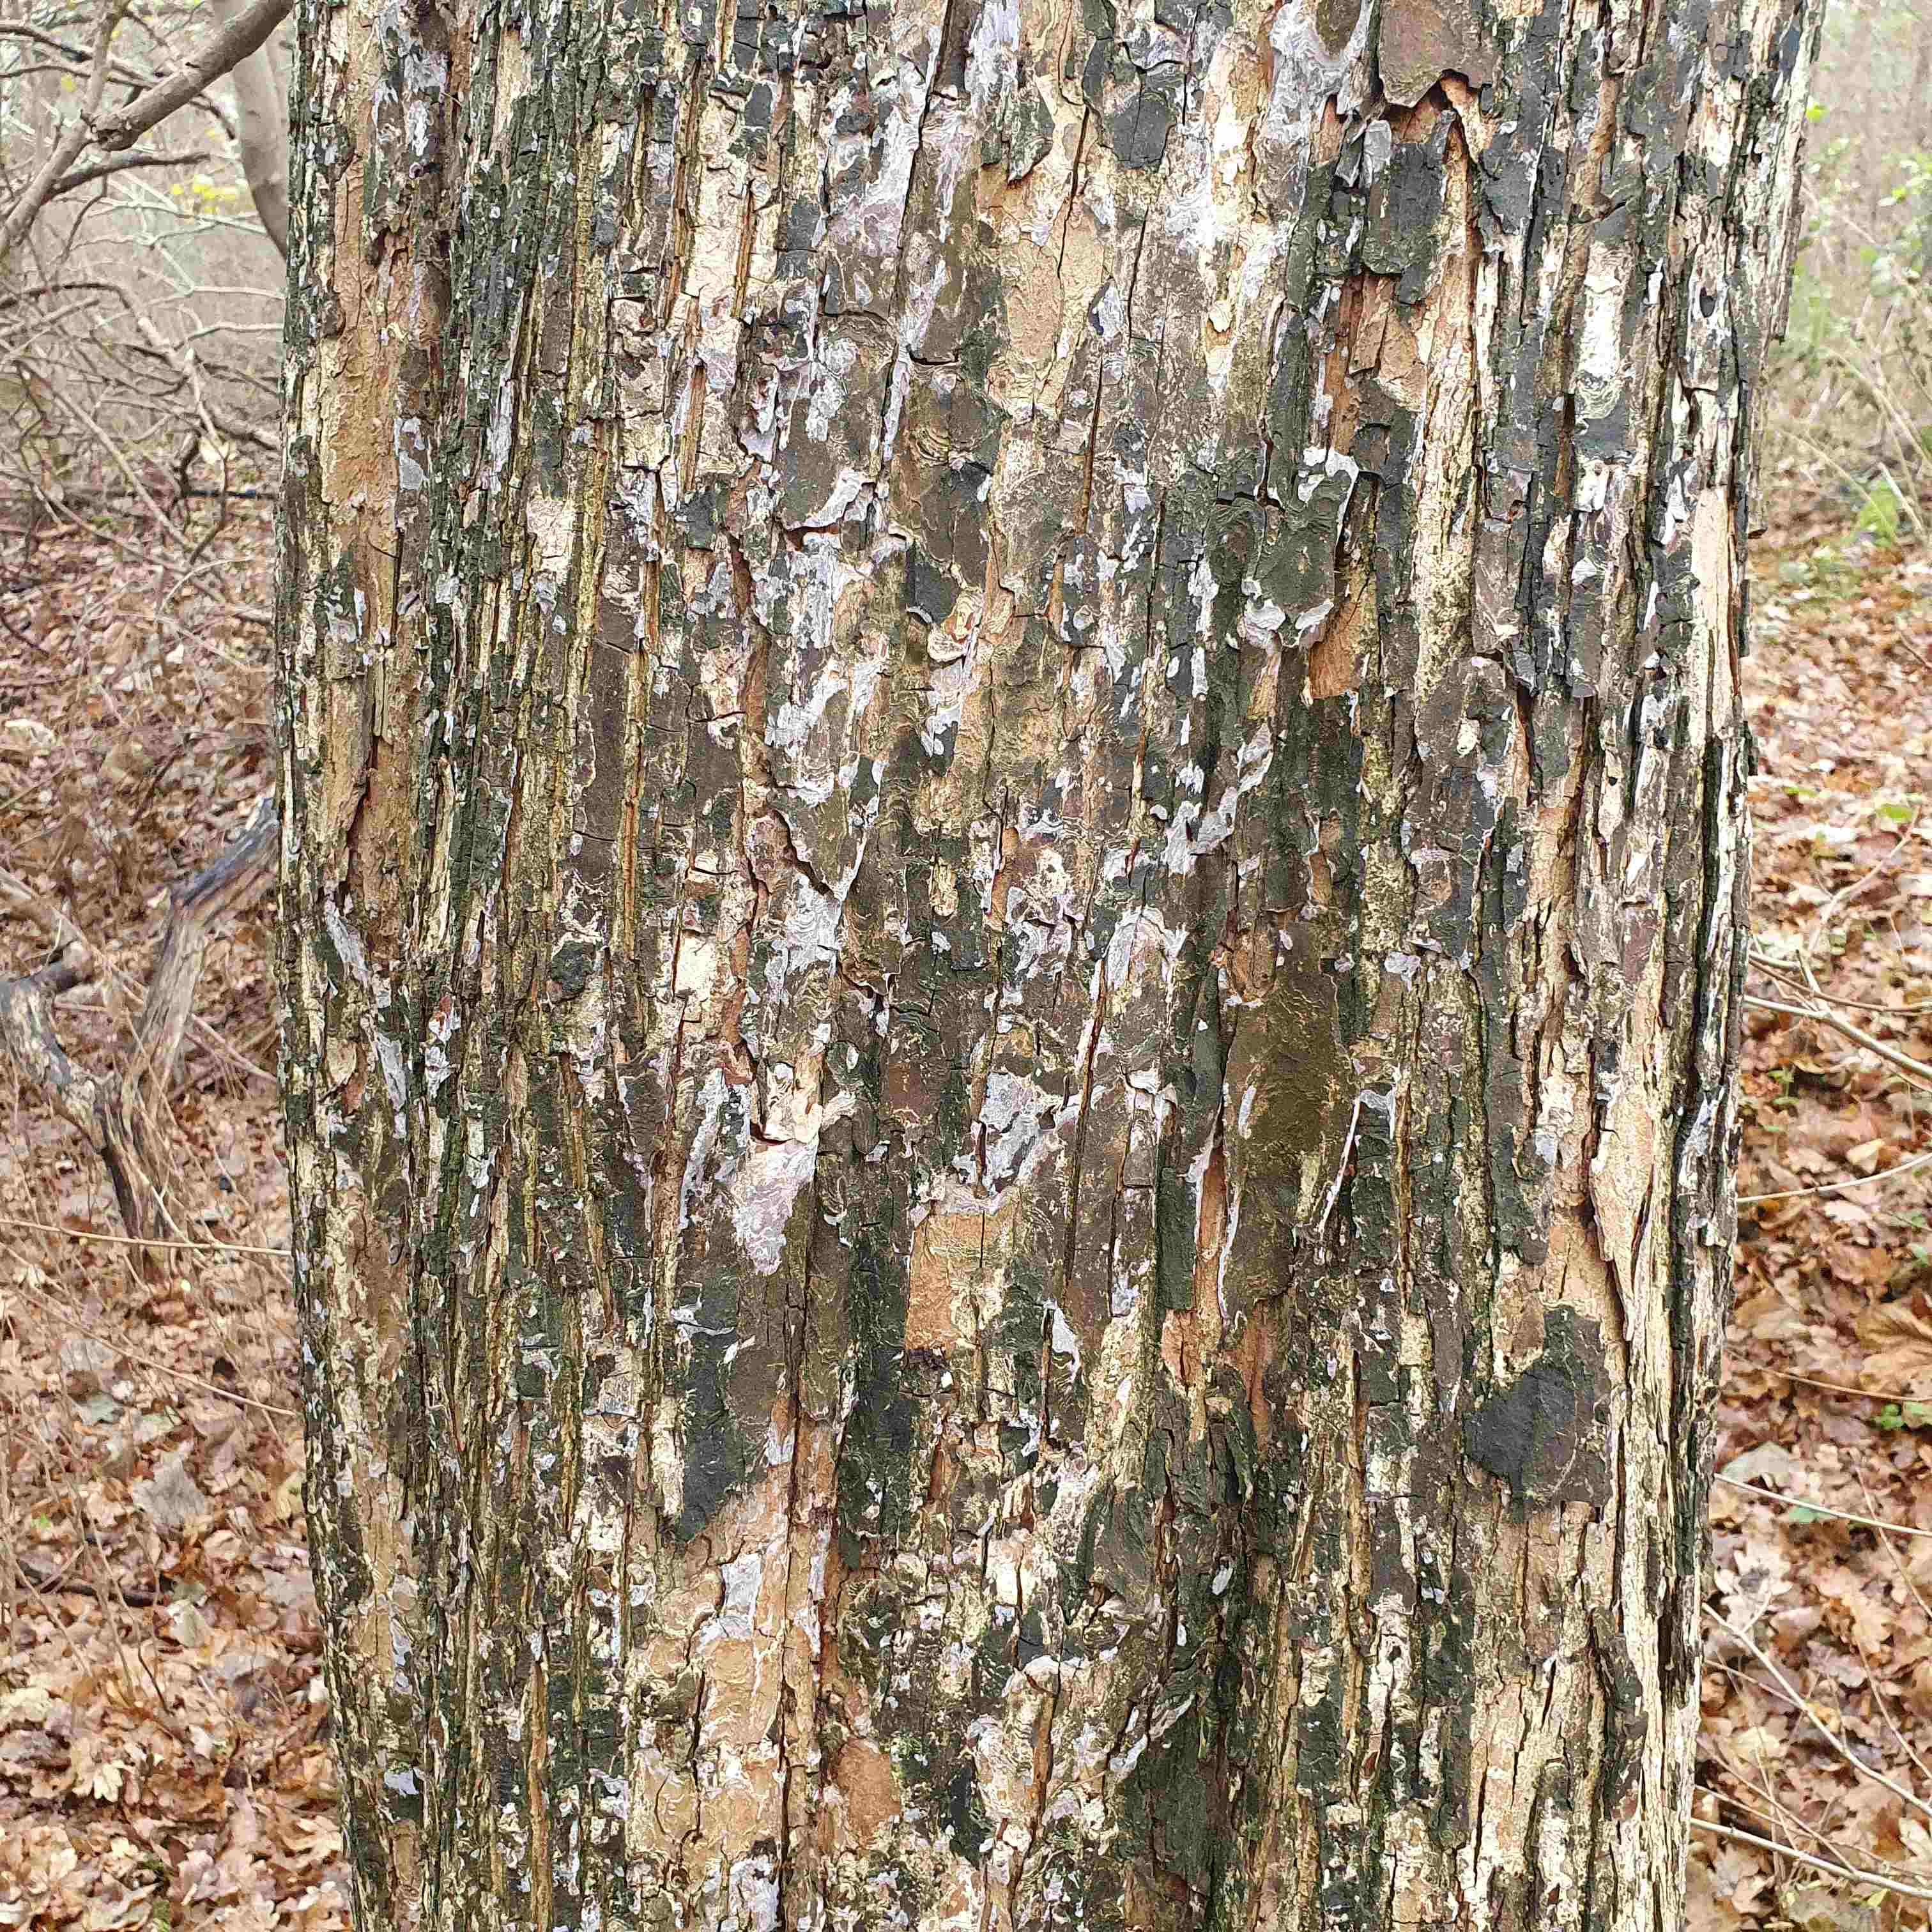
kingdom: Fungi
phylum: Basidiomycota
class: Agaricomycetes
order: Agaricales
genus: Dendrothele
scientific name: Dendrothele acerina
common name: navr-kalkplet
